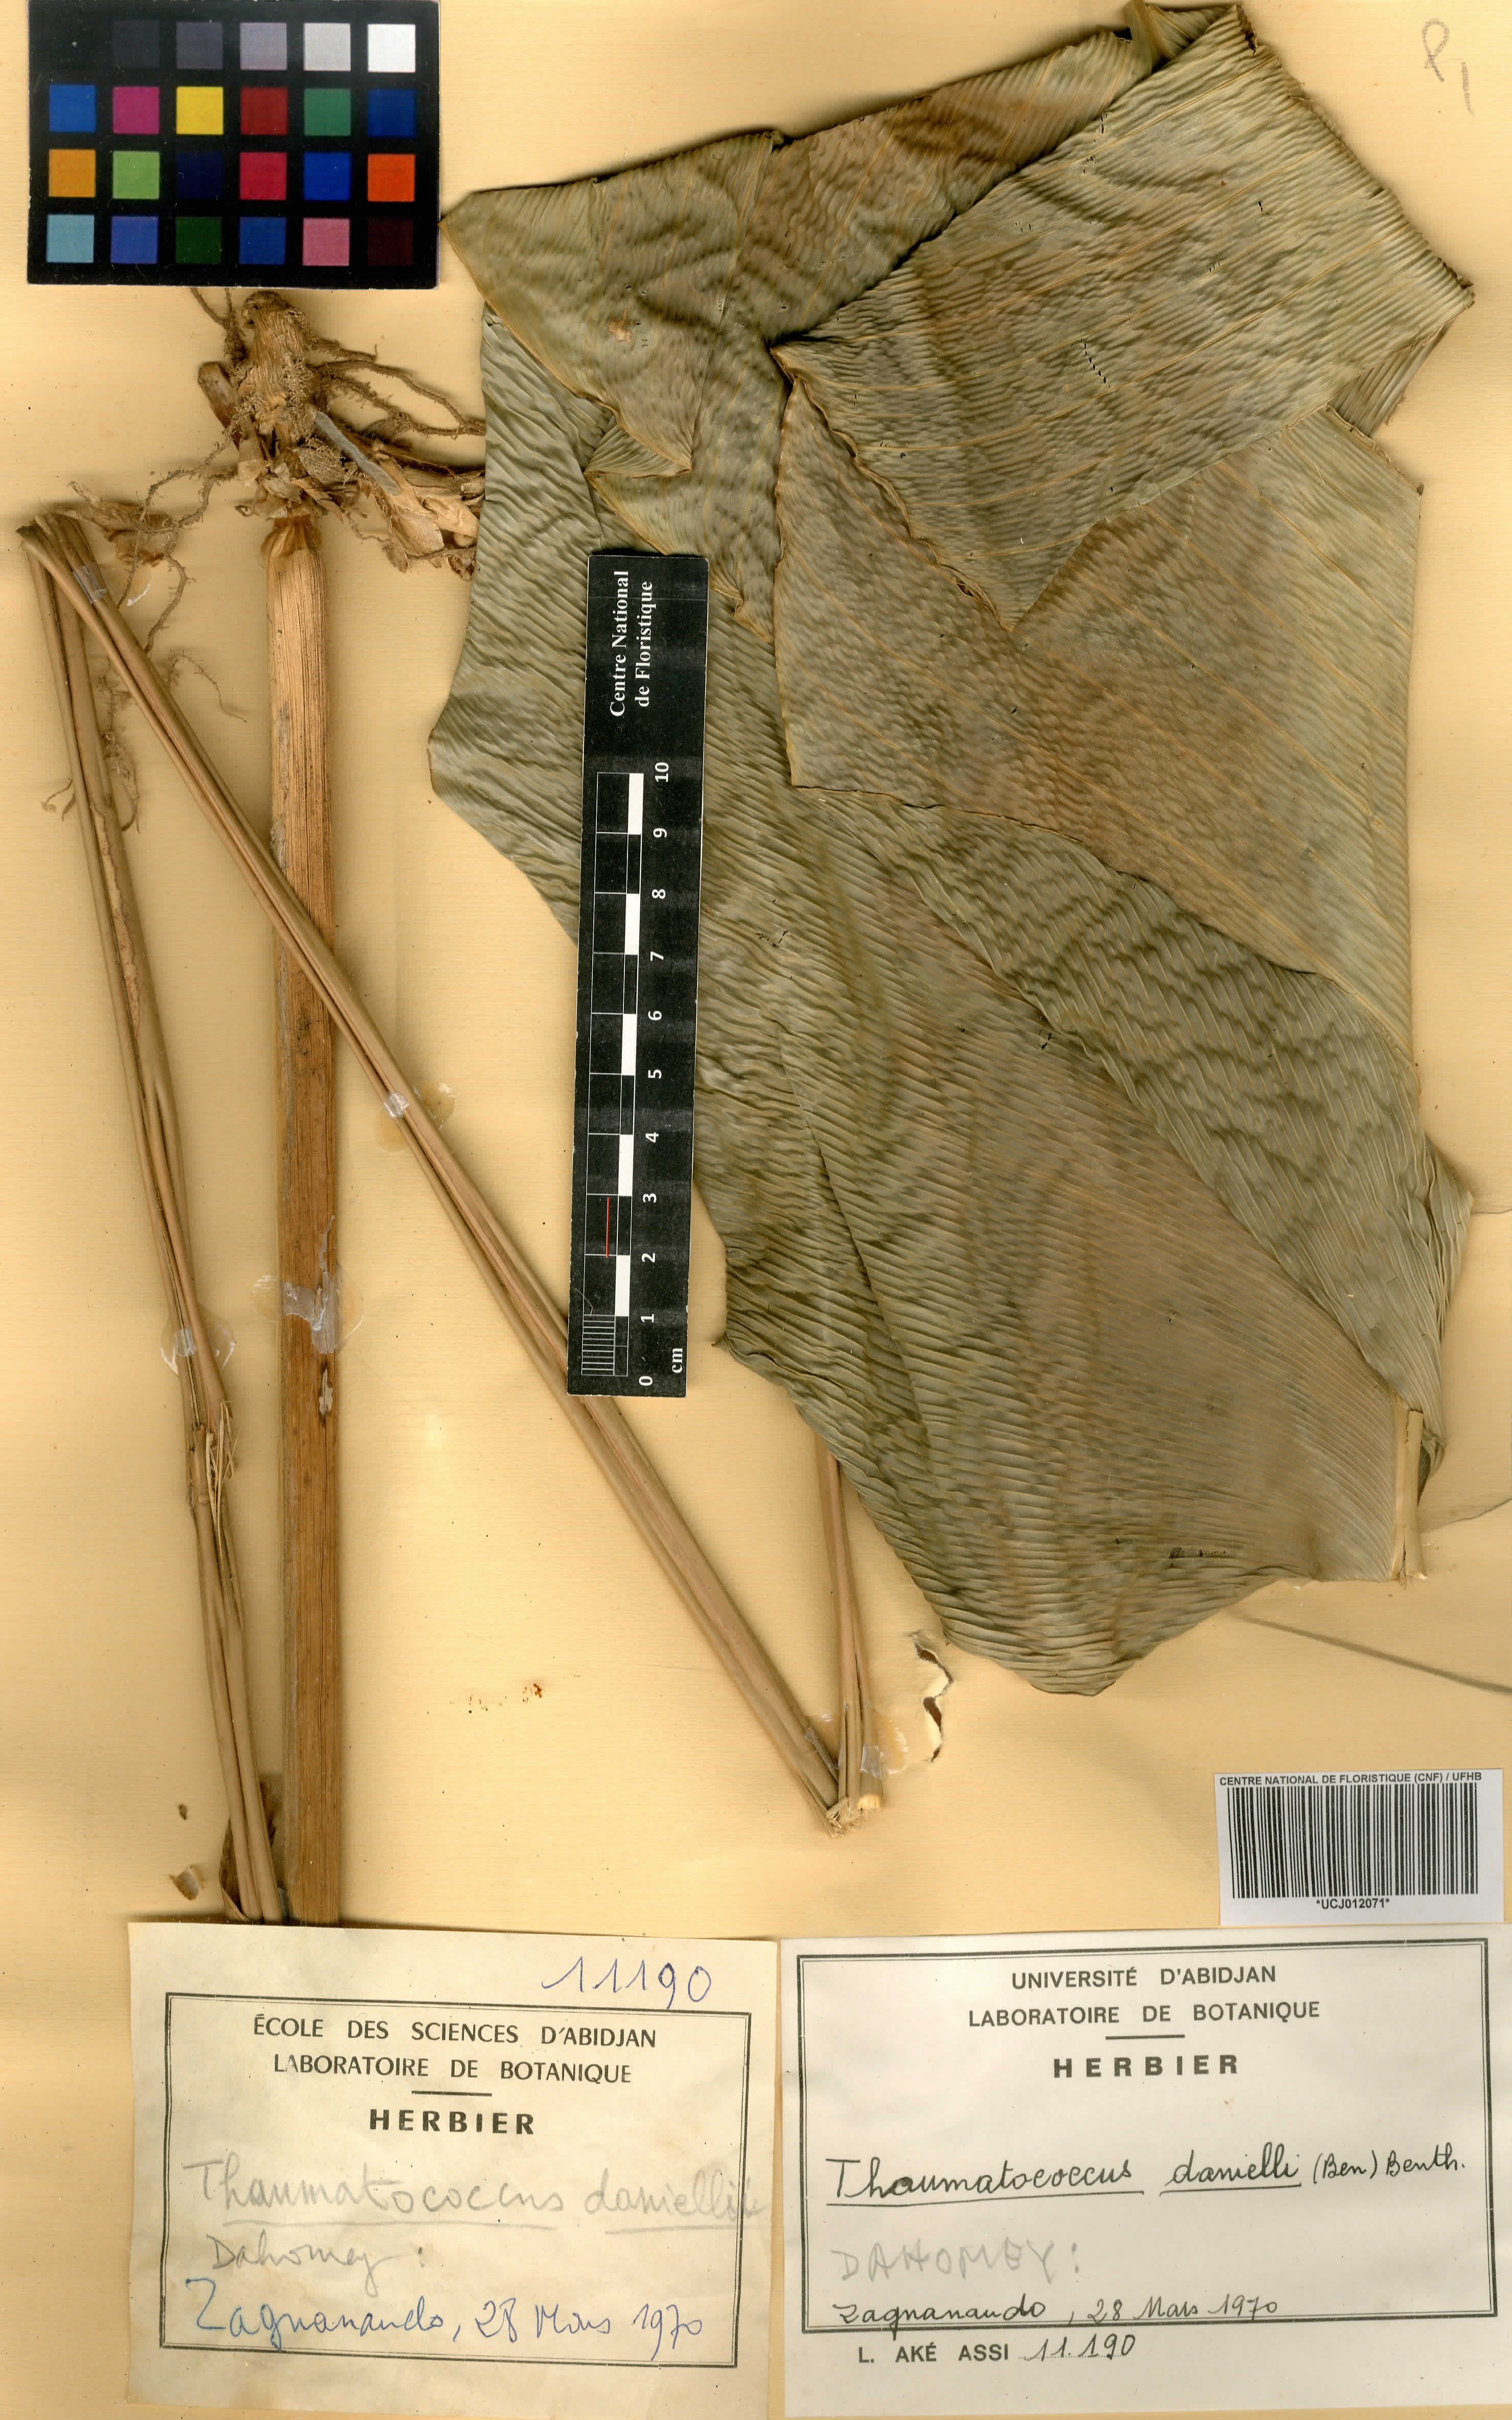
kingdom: Plantae
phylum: Tracheophyta
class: Liliopsida
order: Zingiberales
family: Marantaceae
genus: Thaumatococcus
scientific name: Thaumatococcus daniellii
